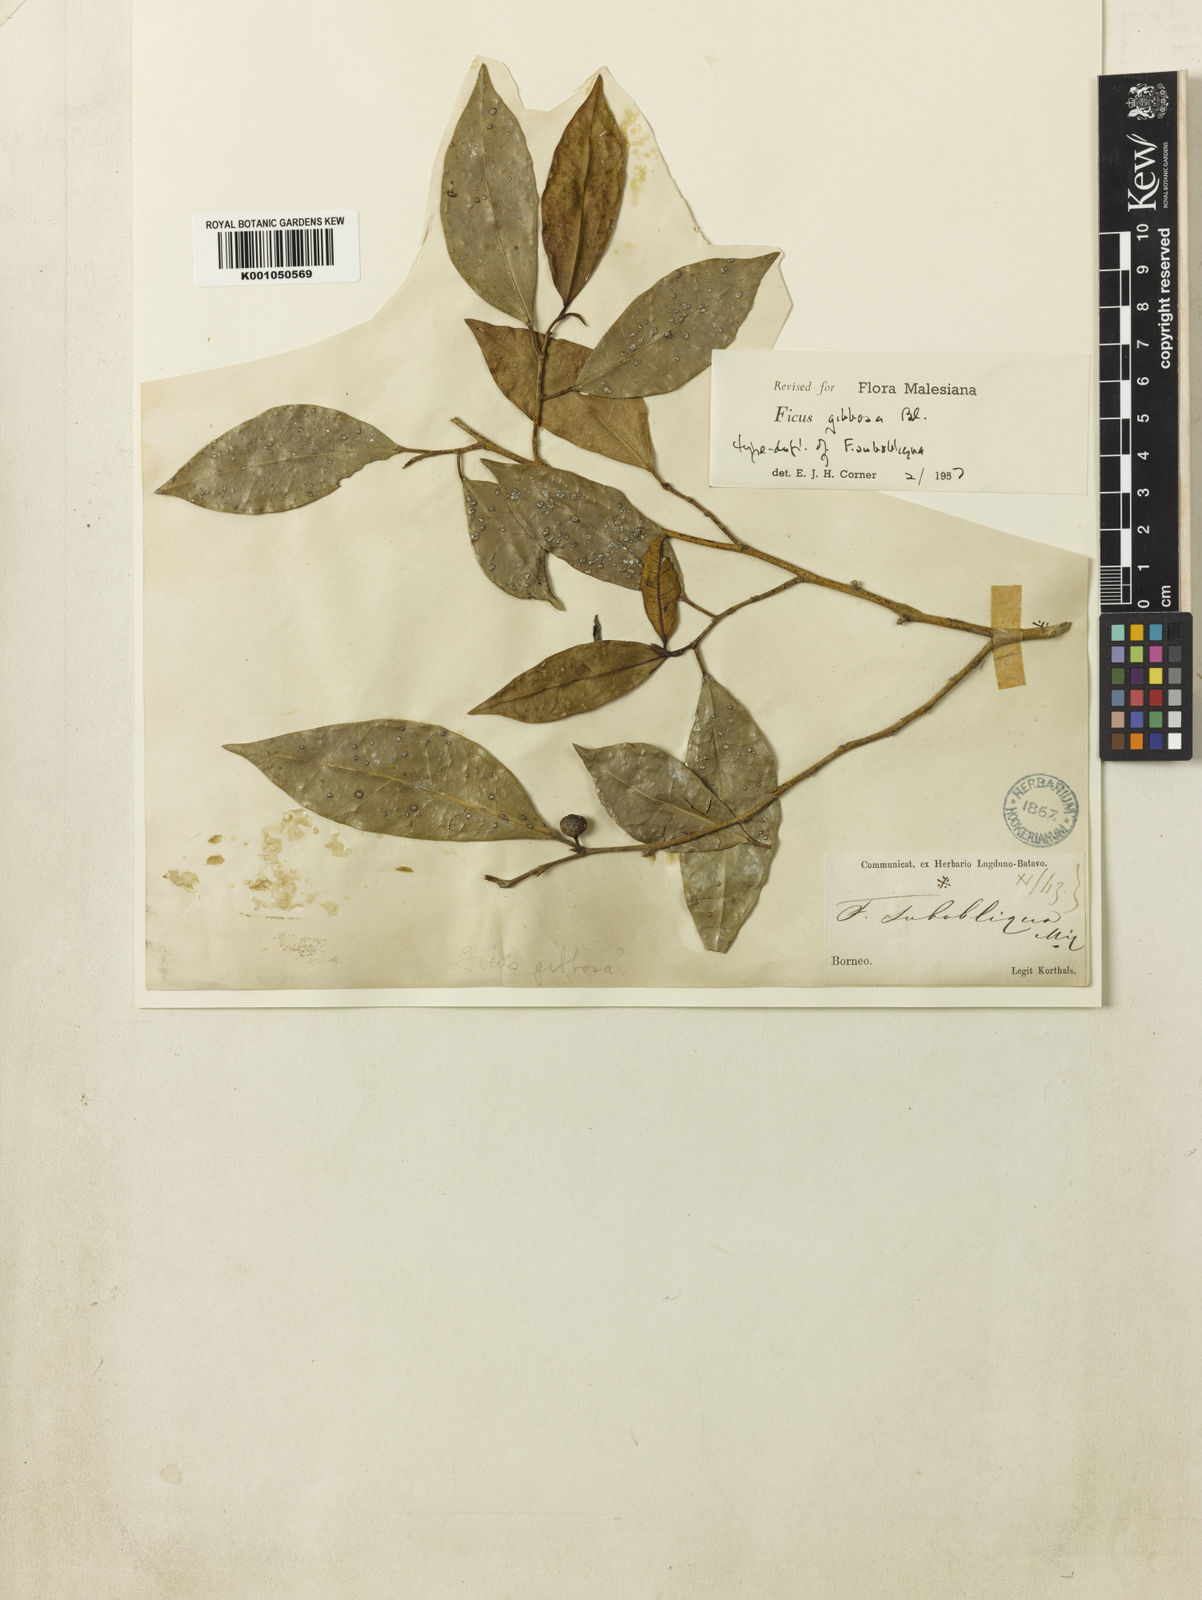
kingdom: Plantae
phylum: Tracheophyta
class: Magnoliopsida
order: Rosales
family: Moraceae
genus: Ficus
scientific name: Ficus tinctoria
